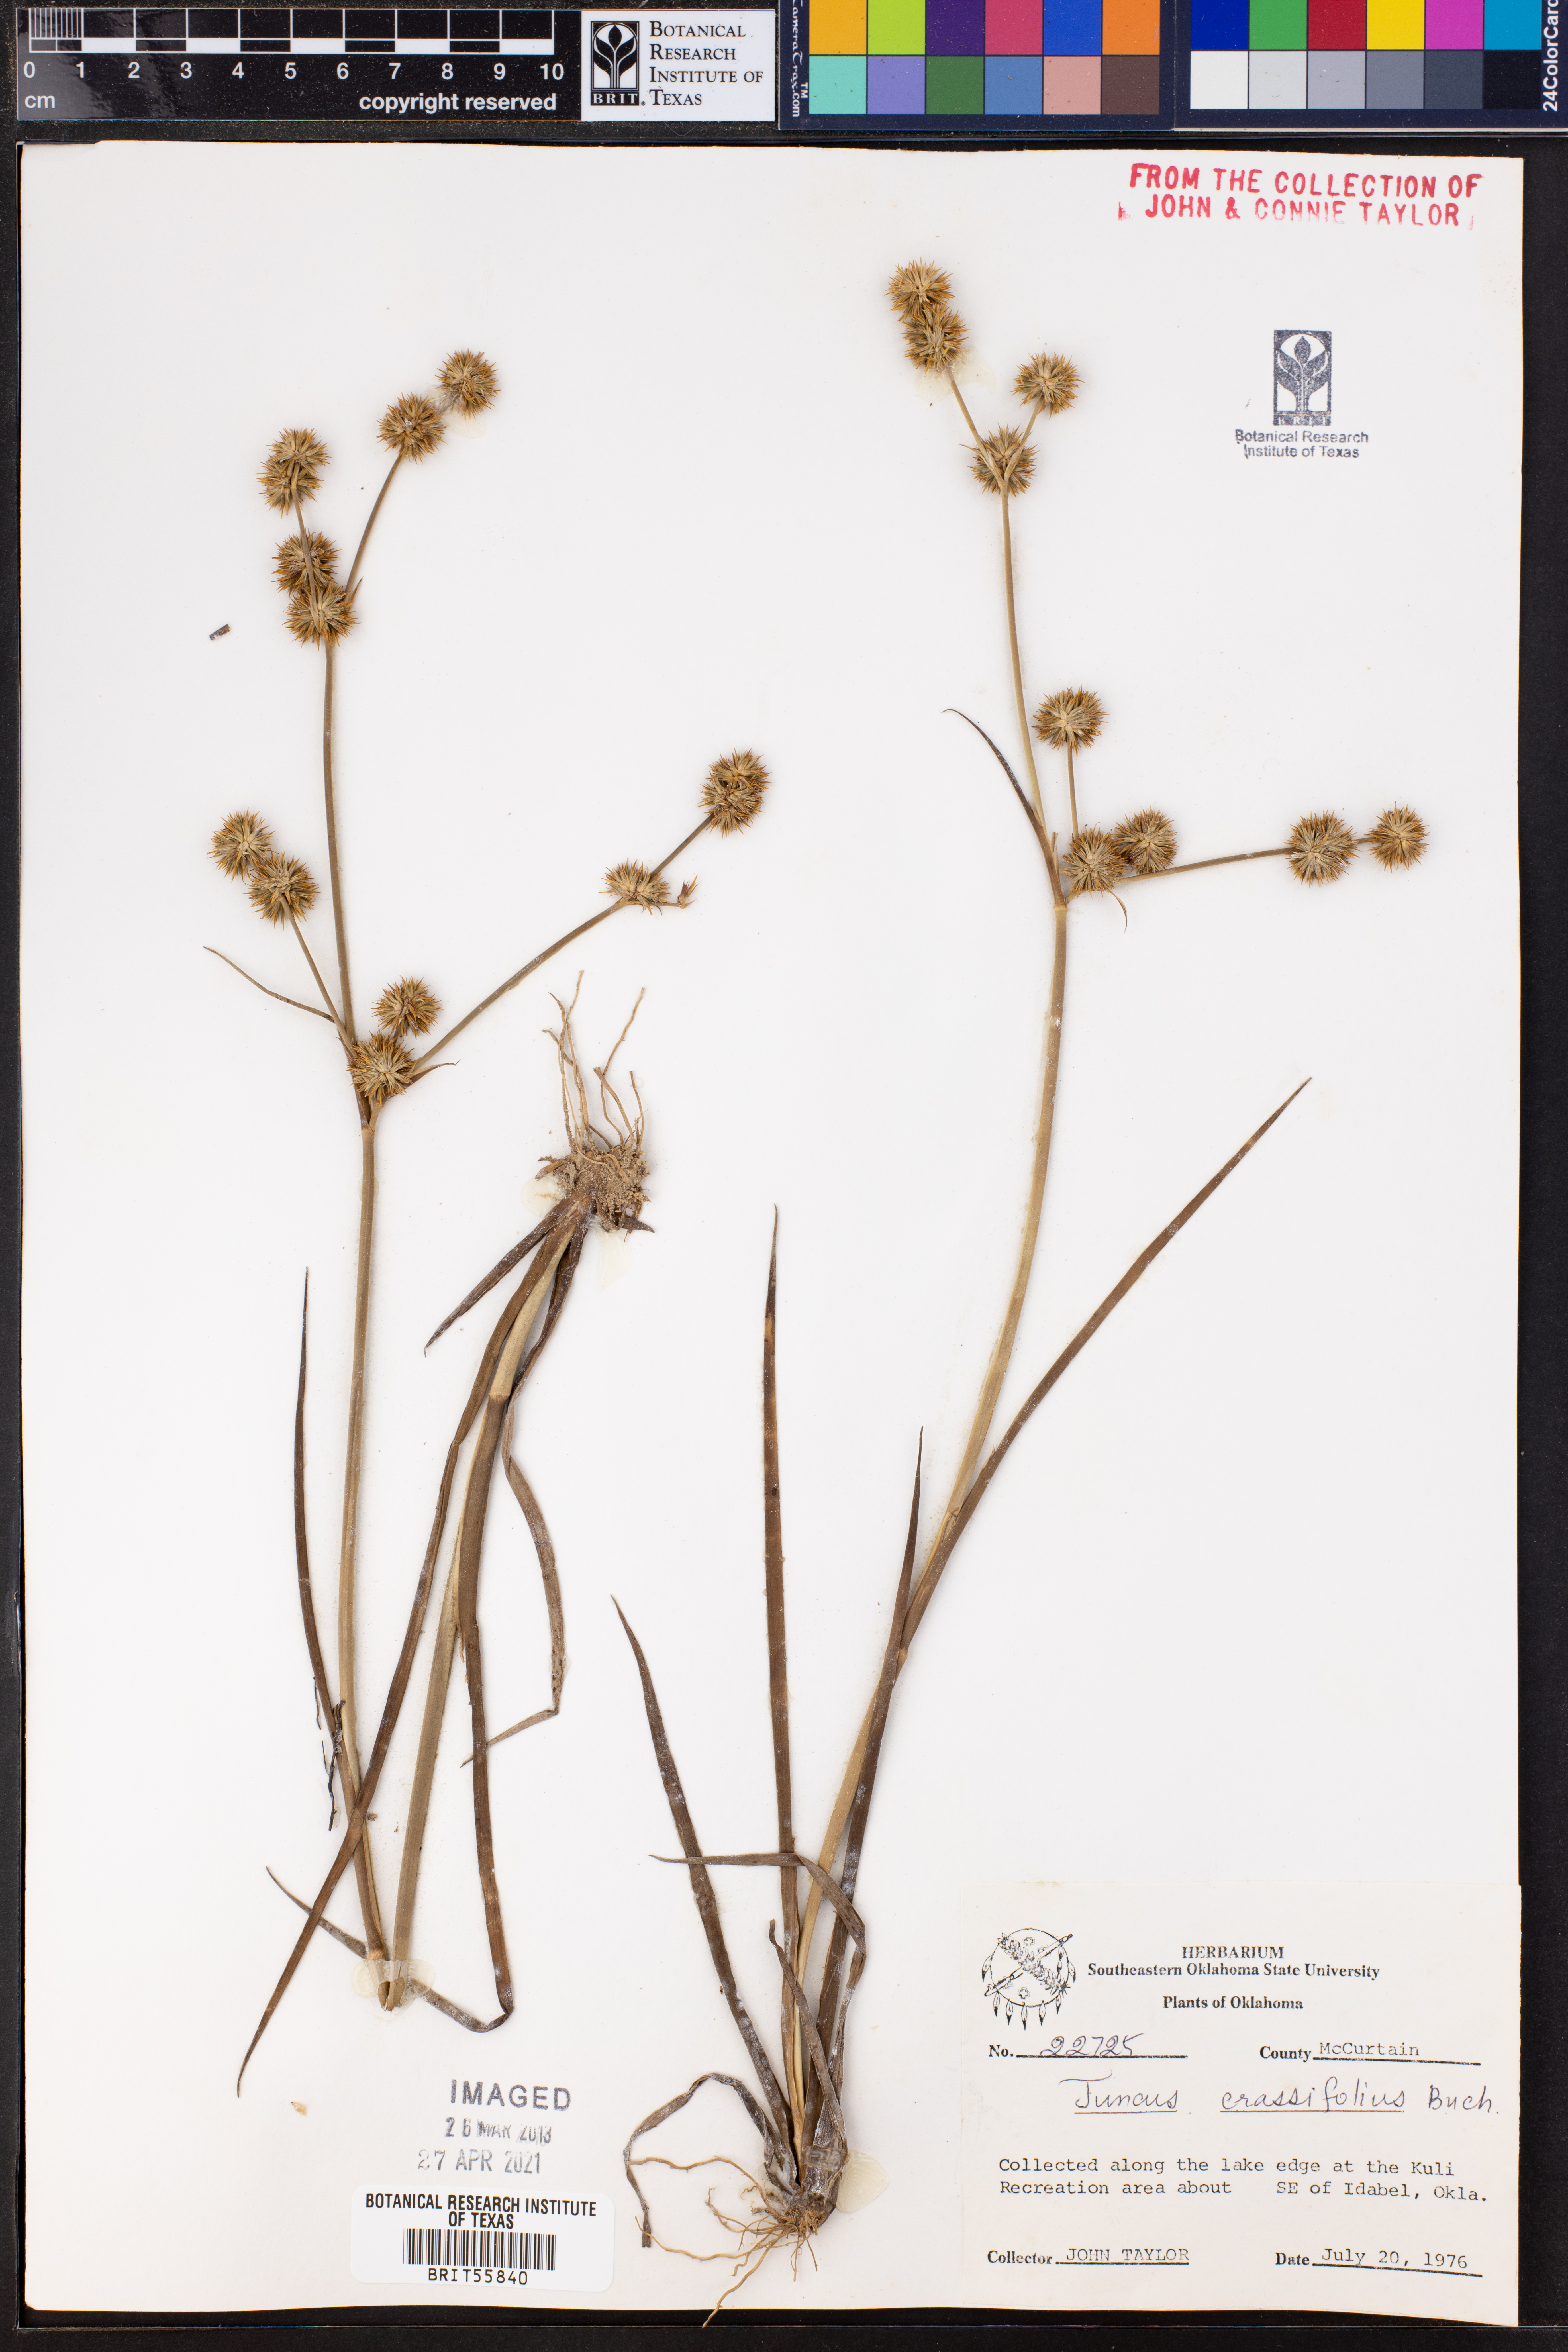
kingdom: Plantae
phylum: Tracheophyta
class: Liliopsida
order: Poales
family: Juncaceae
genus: Juncus
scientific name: Juncus validus
